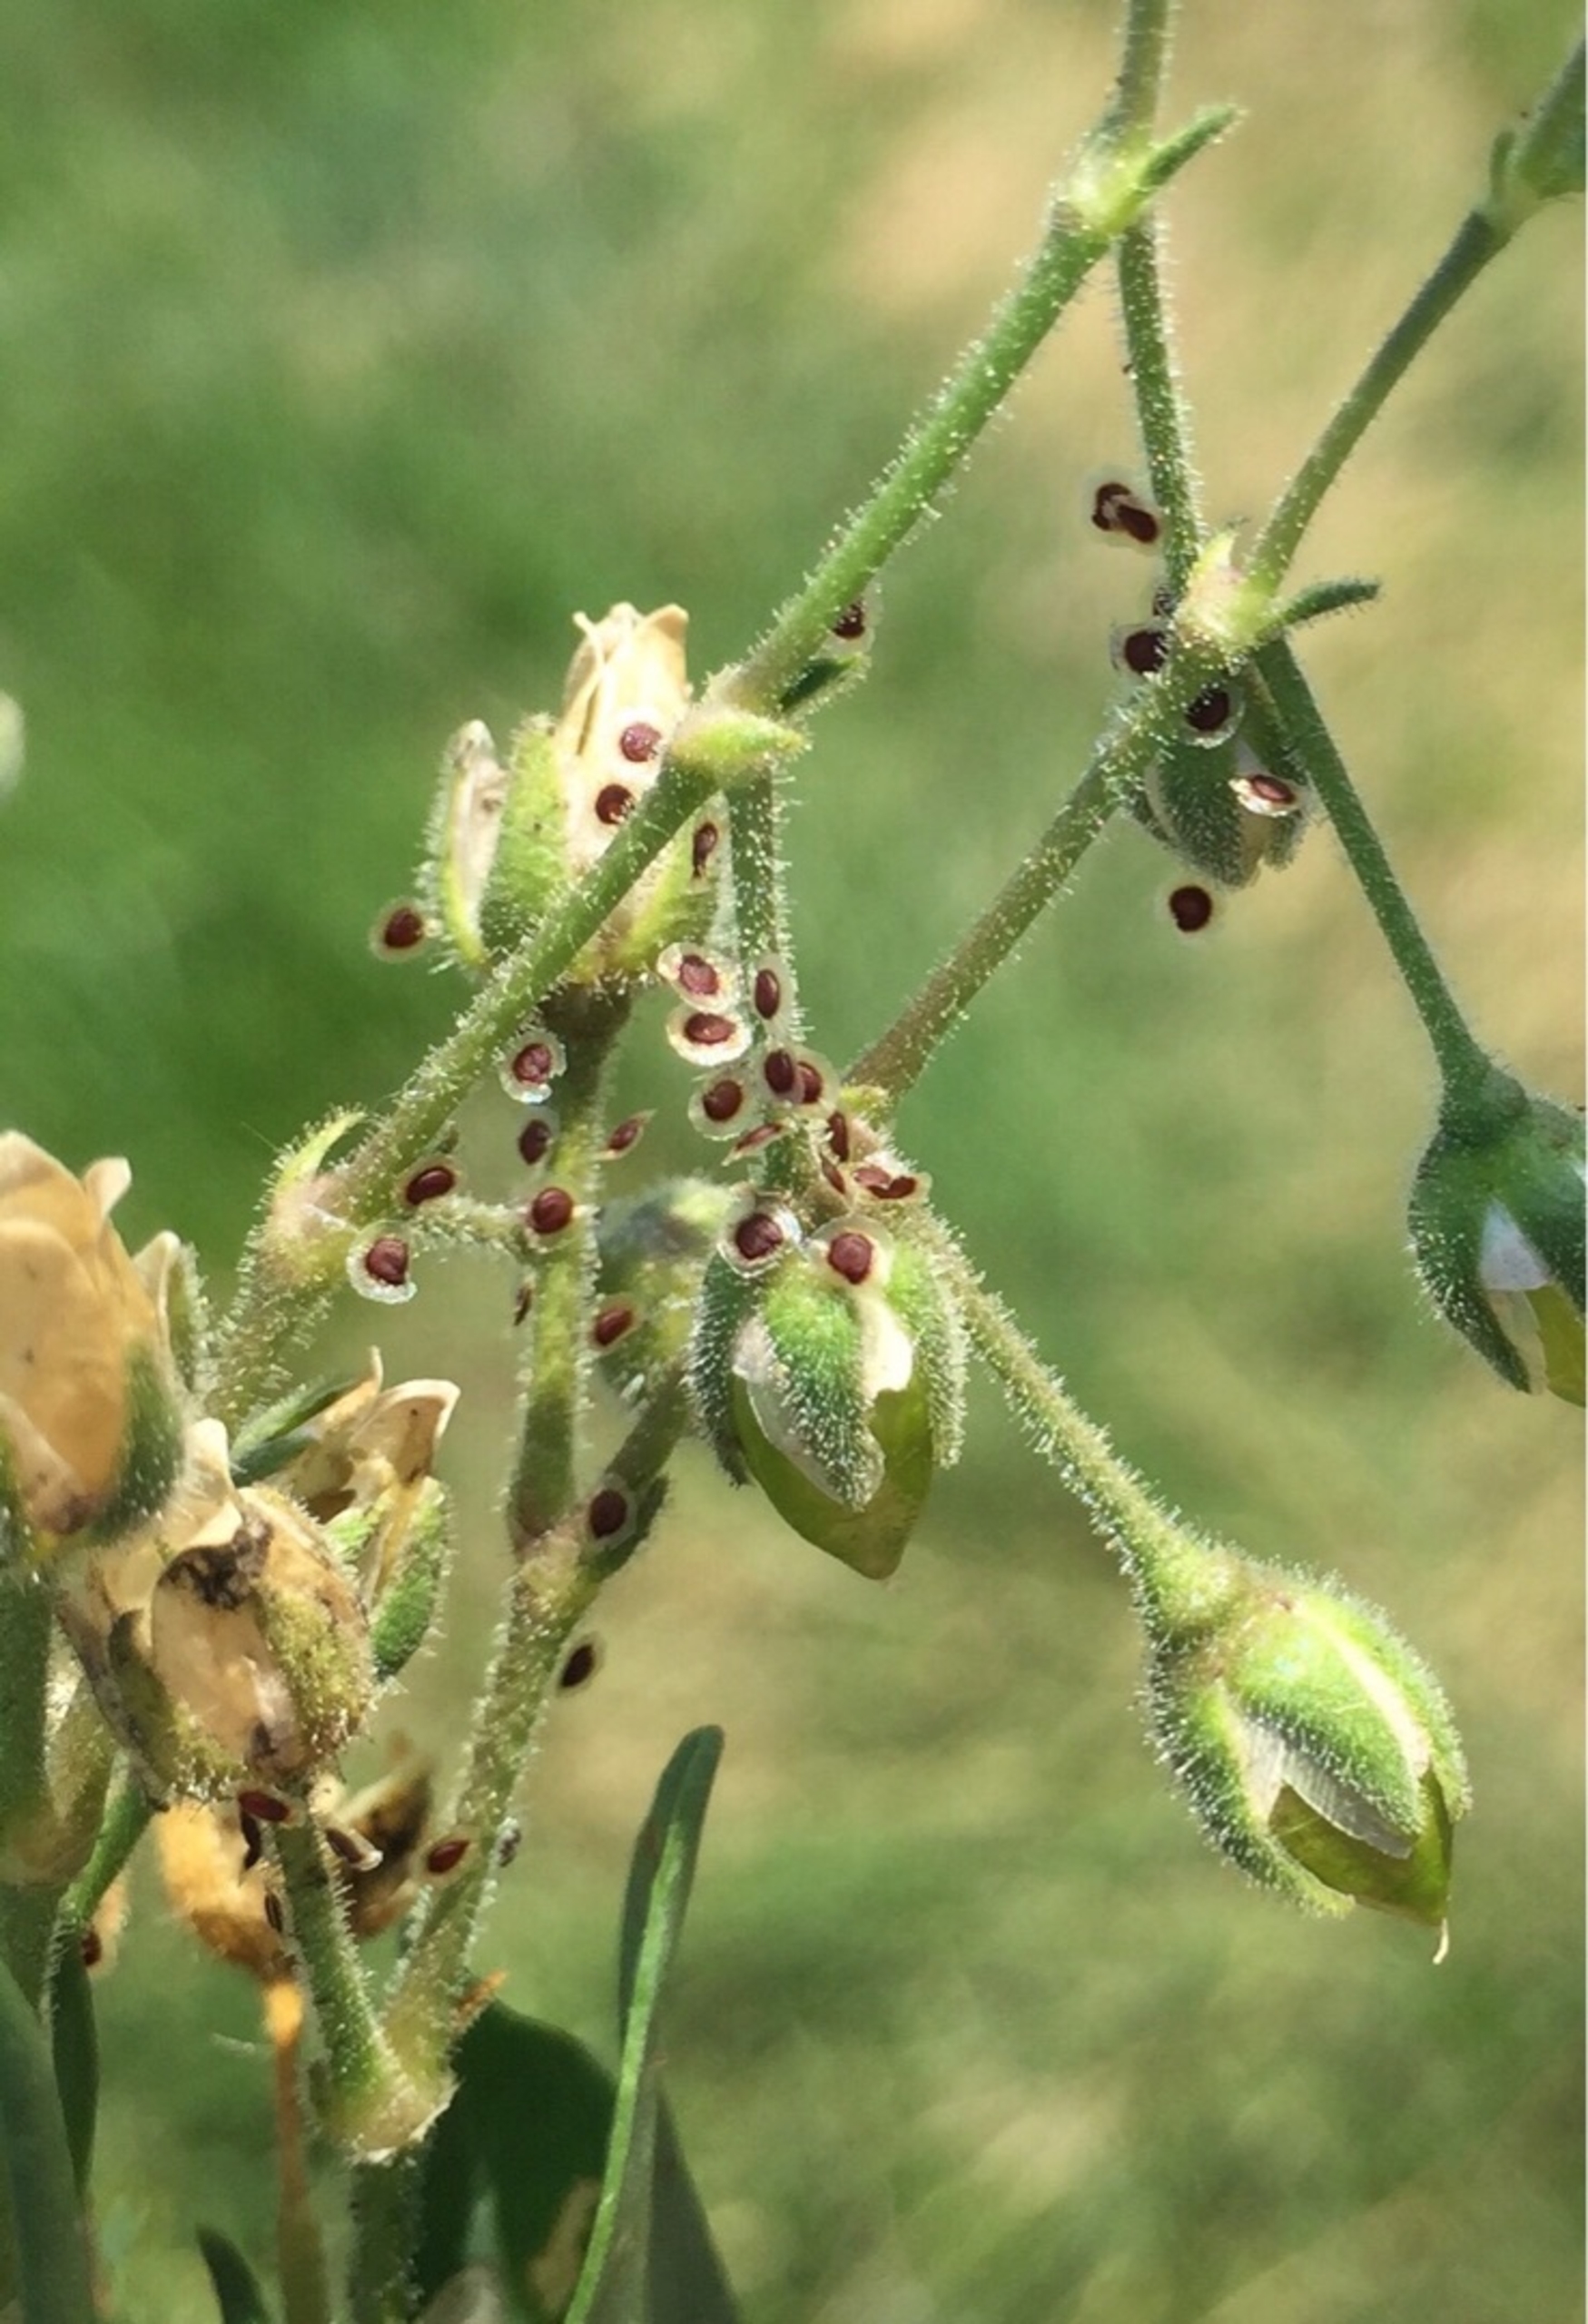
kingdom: Plantae
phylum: Tracheophyta
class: Magnoliopsida
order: Caryophyllales
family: Caryophyllaceae
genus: Spergularia
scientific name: Spergularia media
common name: Vingefrøet hindeknæ
